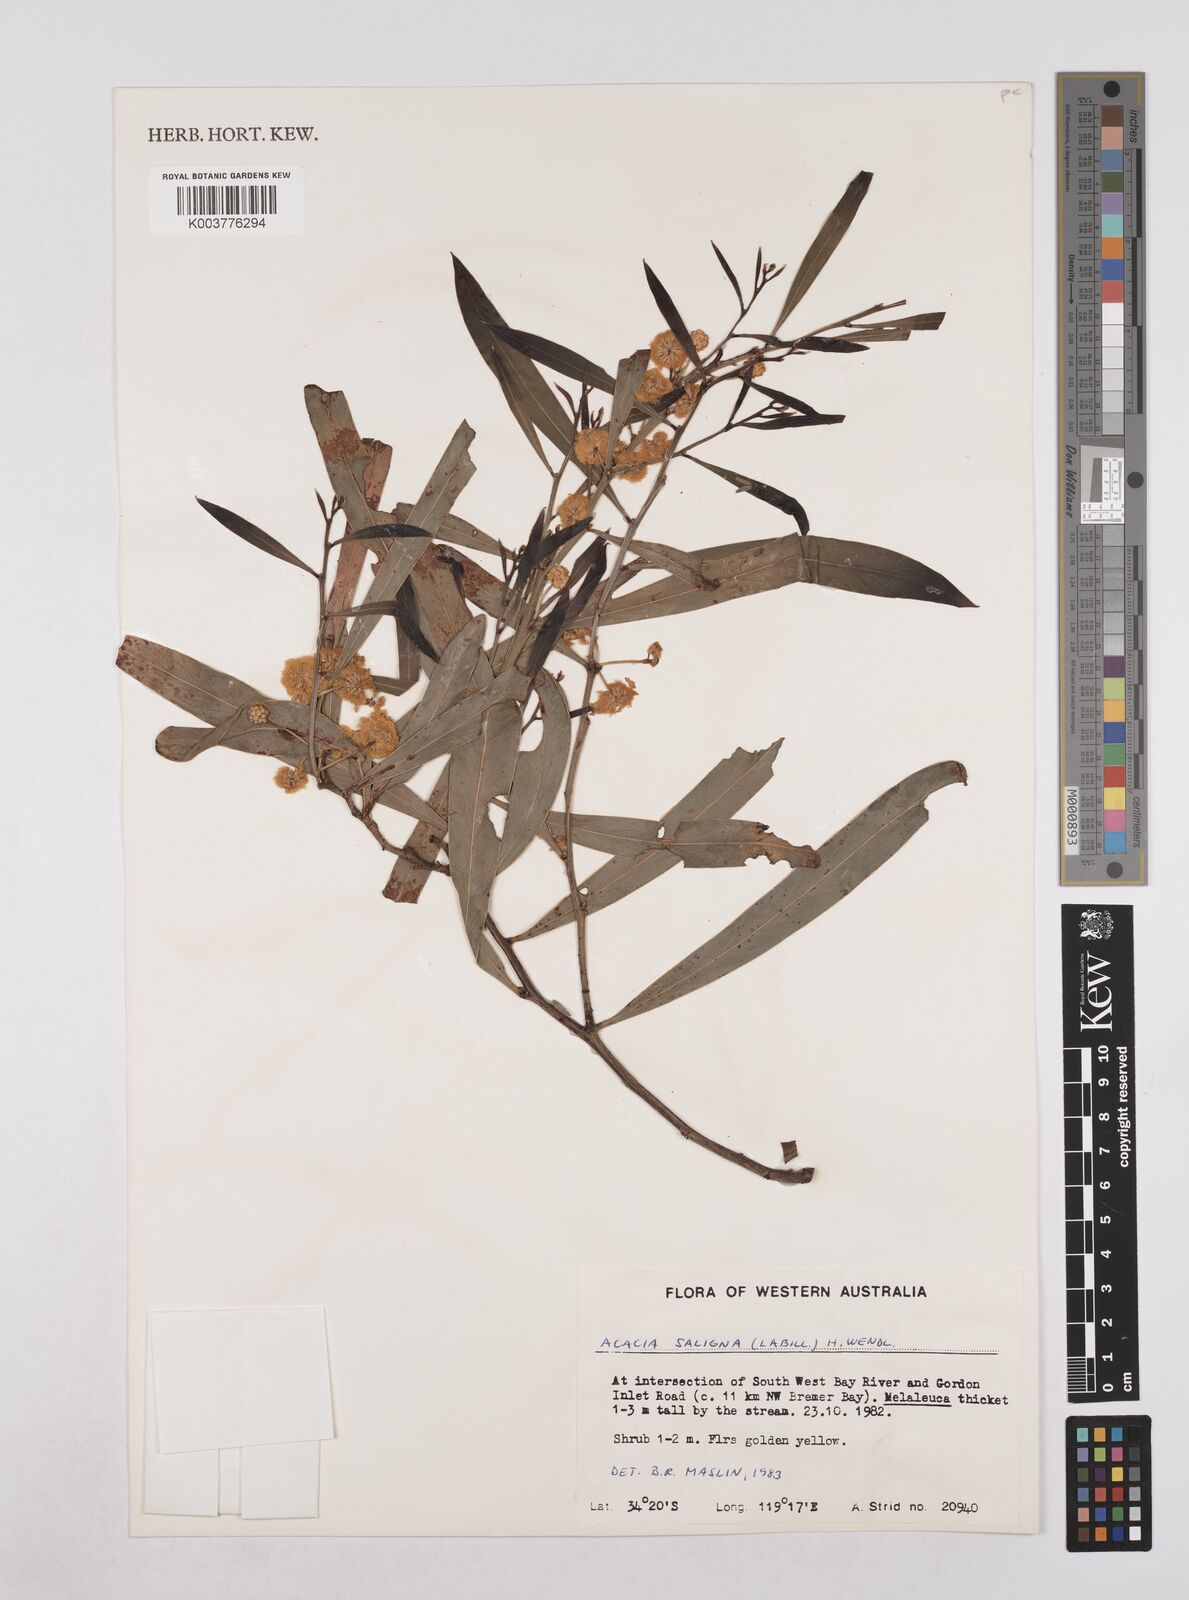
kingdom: Plantae
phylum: Tracheophyta
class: Magnoliopsida
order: Fabales
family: Fabaceae
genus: Acacia
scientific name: Acacia saligna
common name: Orange wattle
